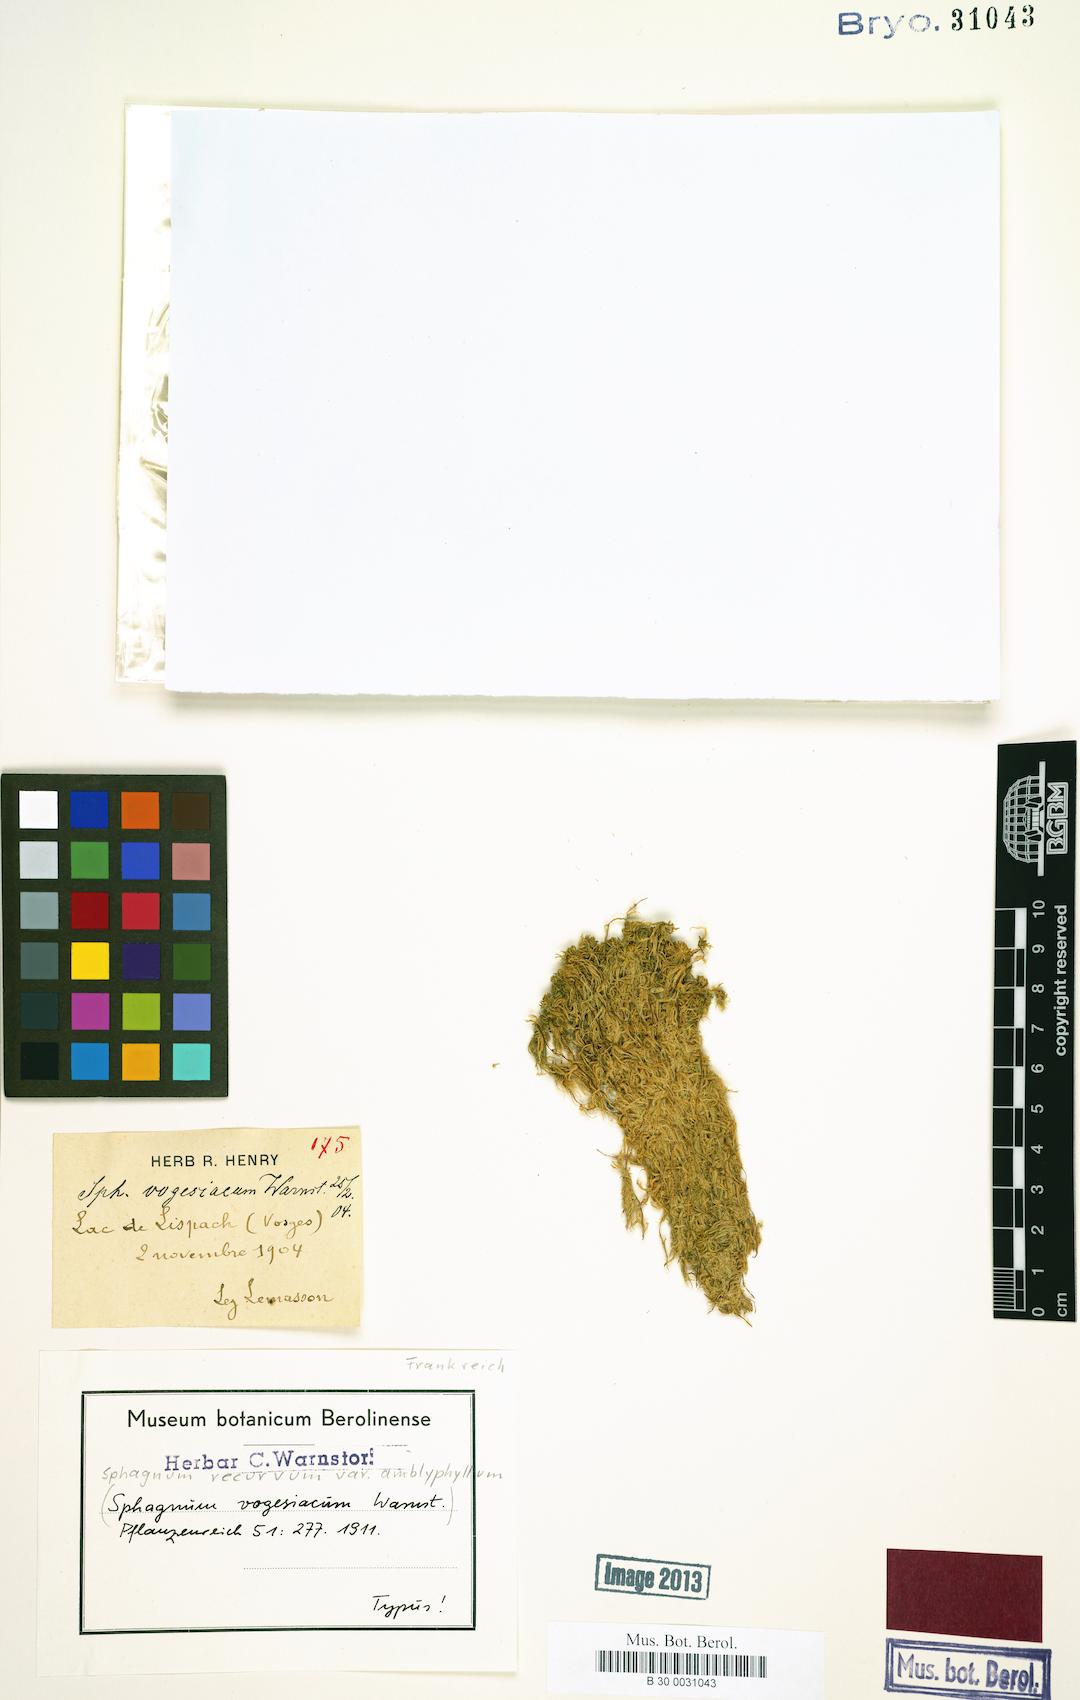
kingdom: Plantae
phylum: Bryophyta
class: Sphagnopsida
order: Sphagnales
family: Sphagnaceae
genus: Sphagnum
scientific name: Sphagnum recurvum
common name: Recurved peatmoss
